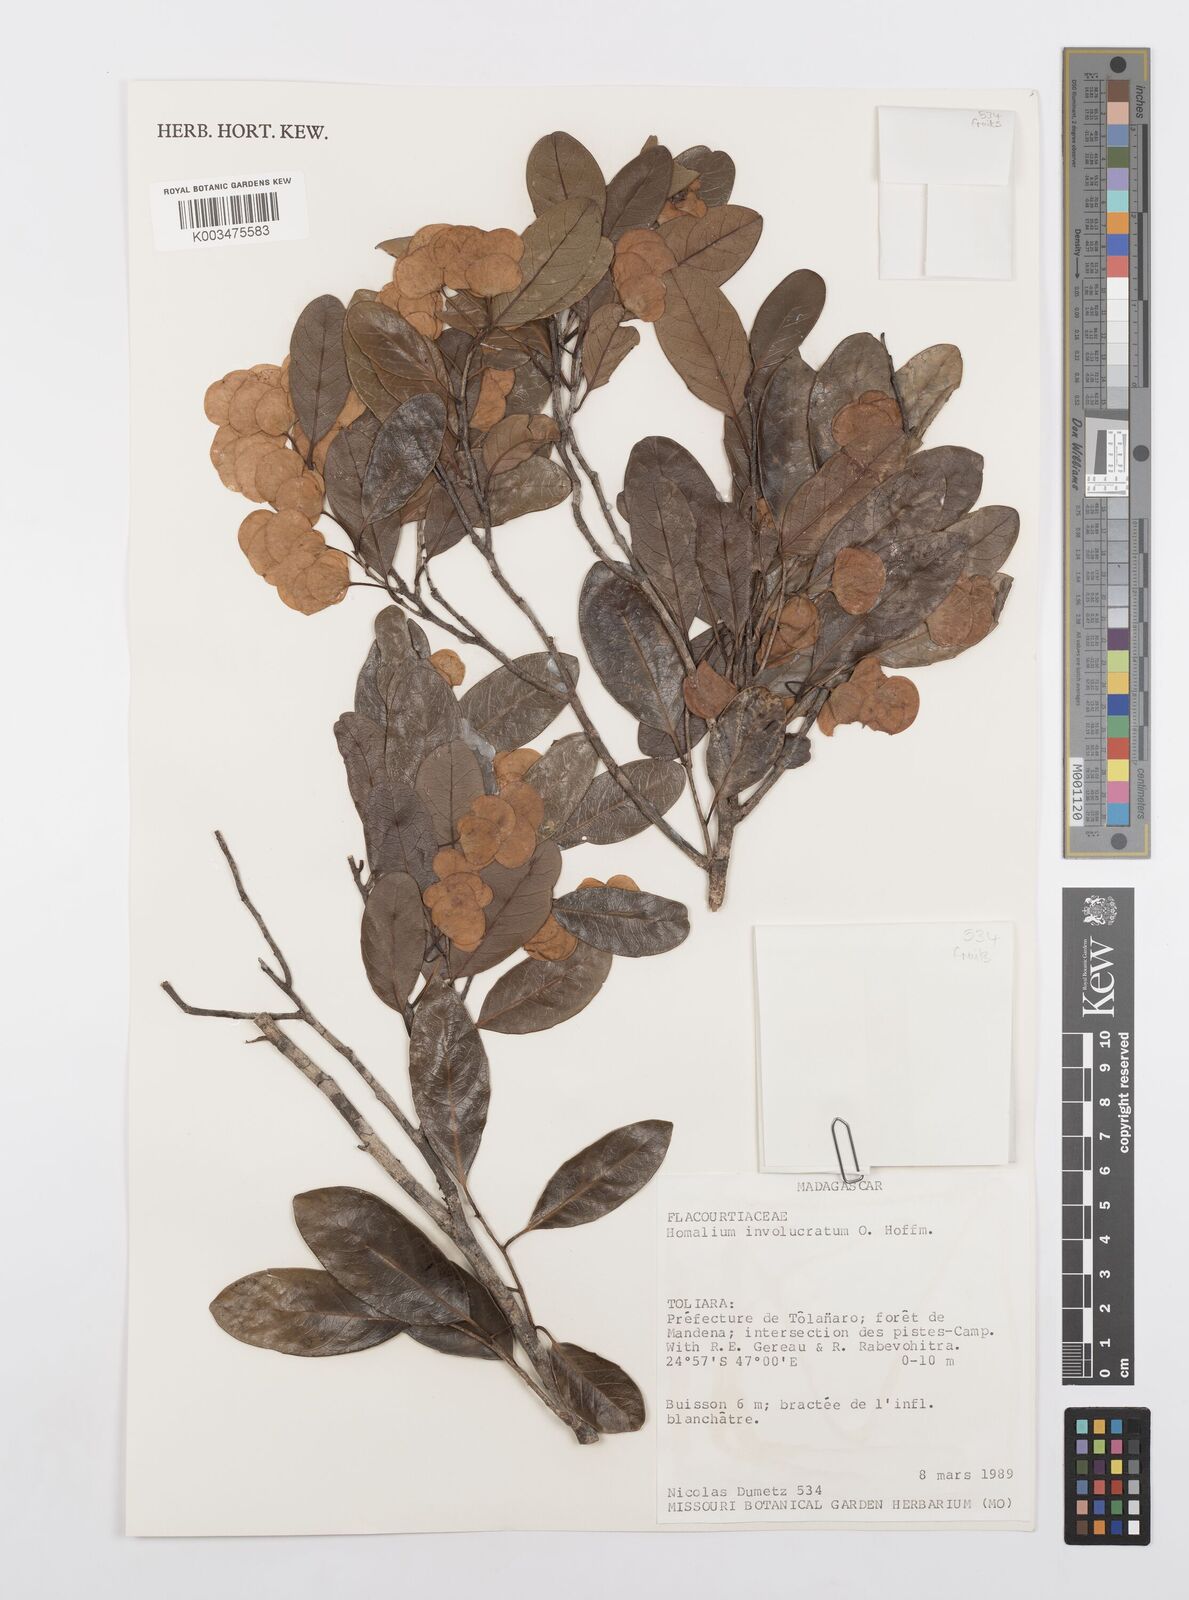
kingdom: Plantae
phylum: Tracheophyta
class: Magnoliopsida
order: Malpighiales
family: Salicaceae
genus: Homalium
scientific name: Homalium involucratum
